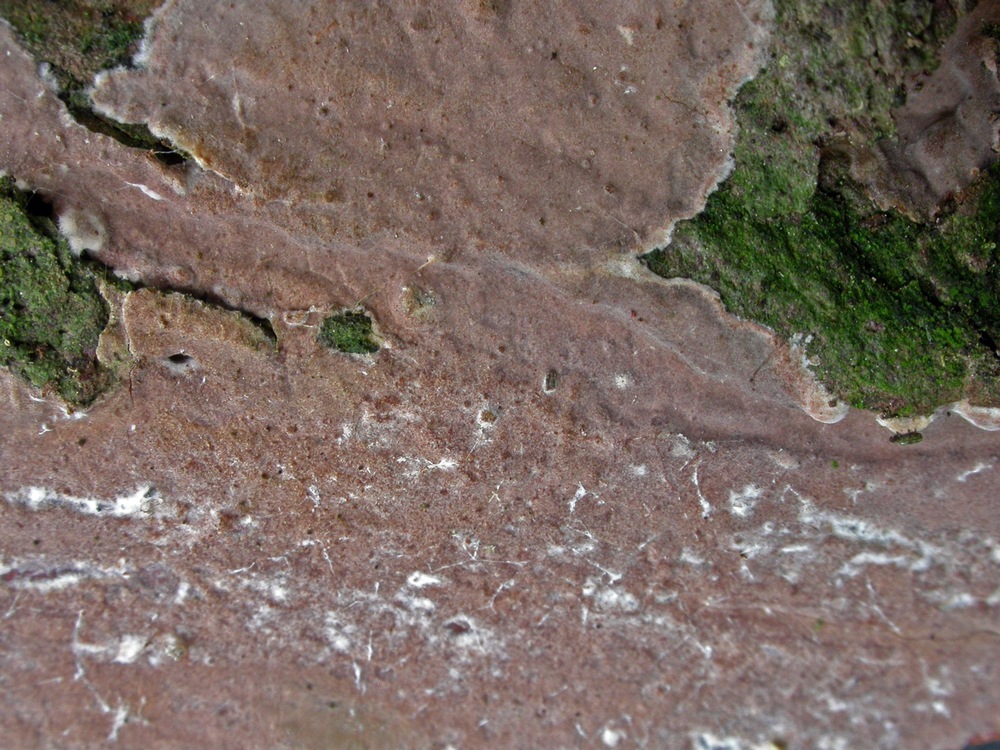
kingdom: Fungi
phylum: Basidiomycota
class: Agaricomycetes
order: Russulales
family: Echinodontiaceae
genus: Amylostereum
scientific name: Amylostereum laevigatum
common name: ene-lædersvamp
